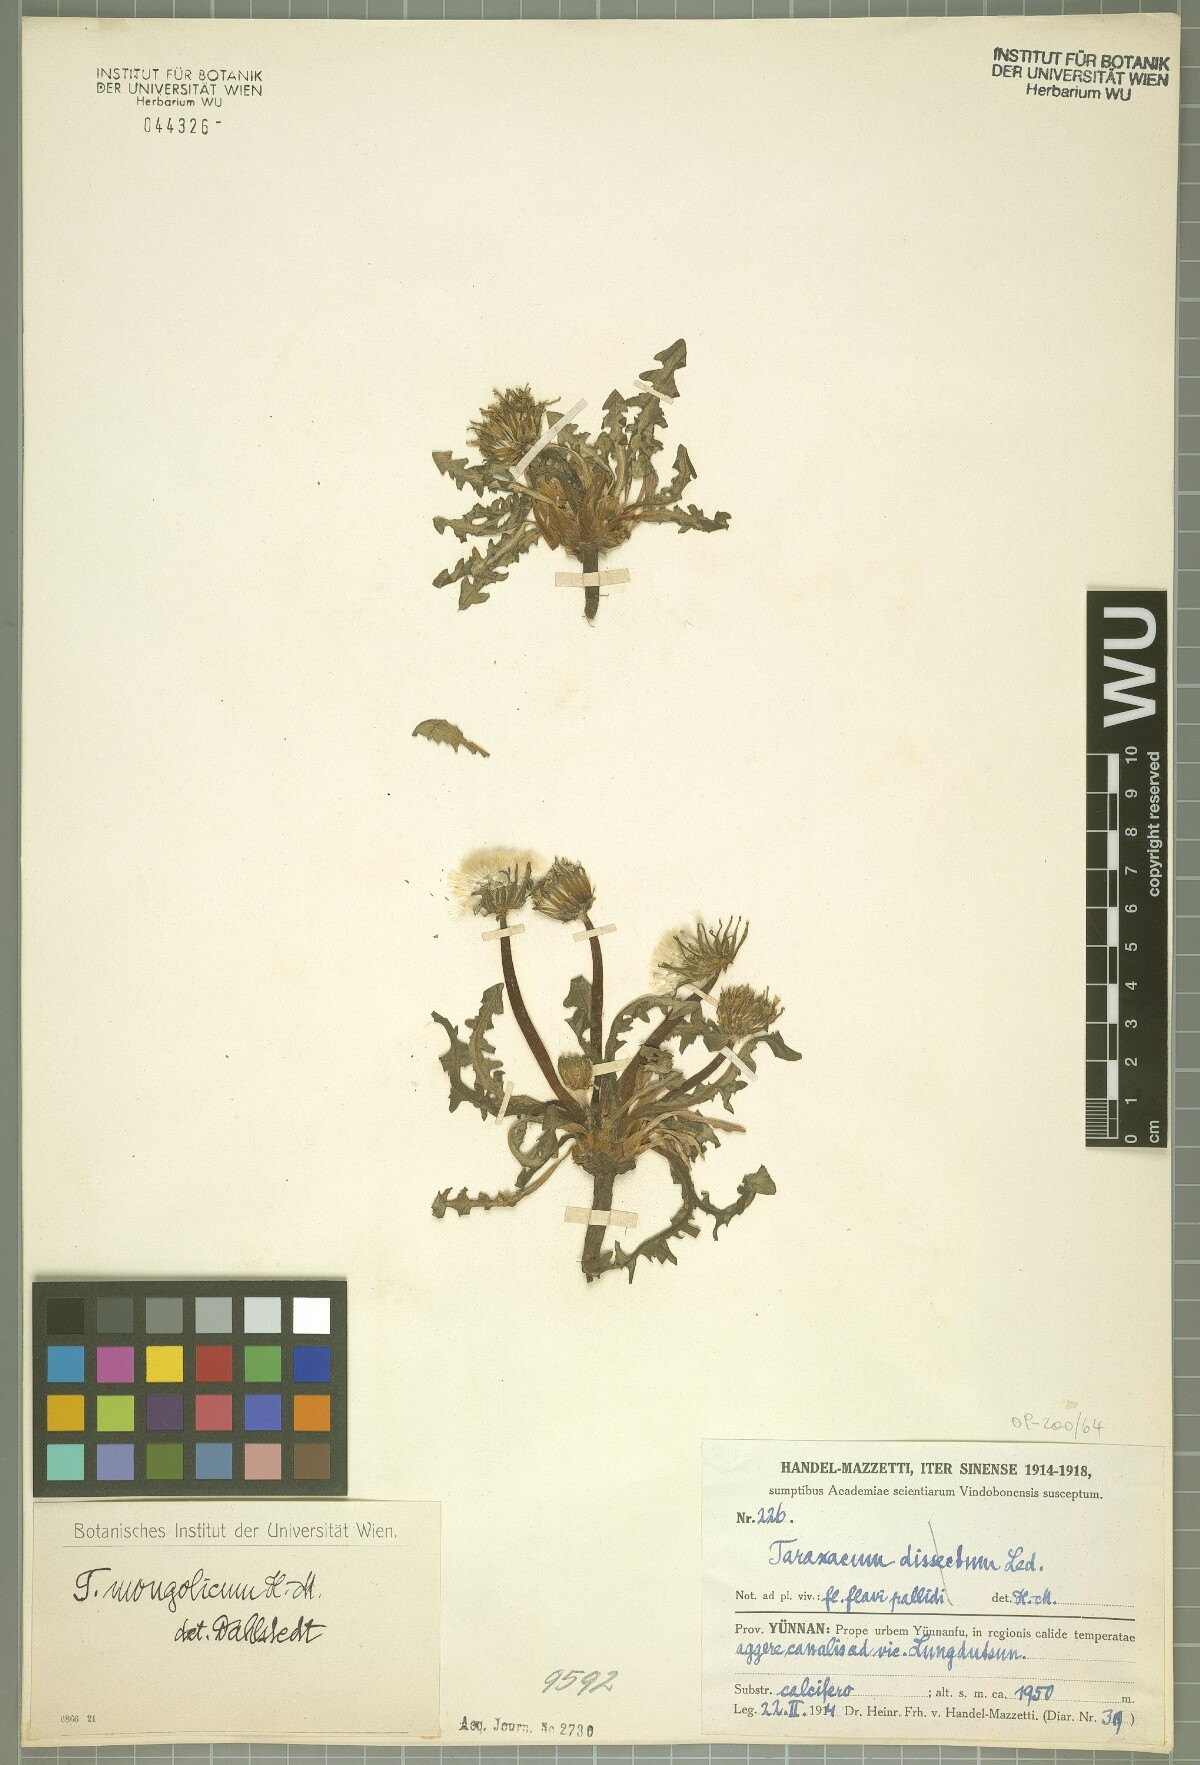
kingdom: Plantae
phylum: Tracheophyta
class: Magnoliopsida
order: Asterales
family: Asteraceae
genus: Taraxacum
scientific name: Taraxacum mongolicum
